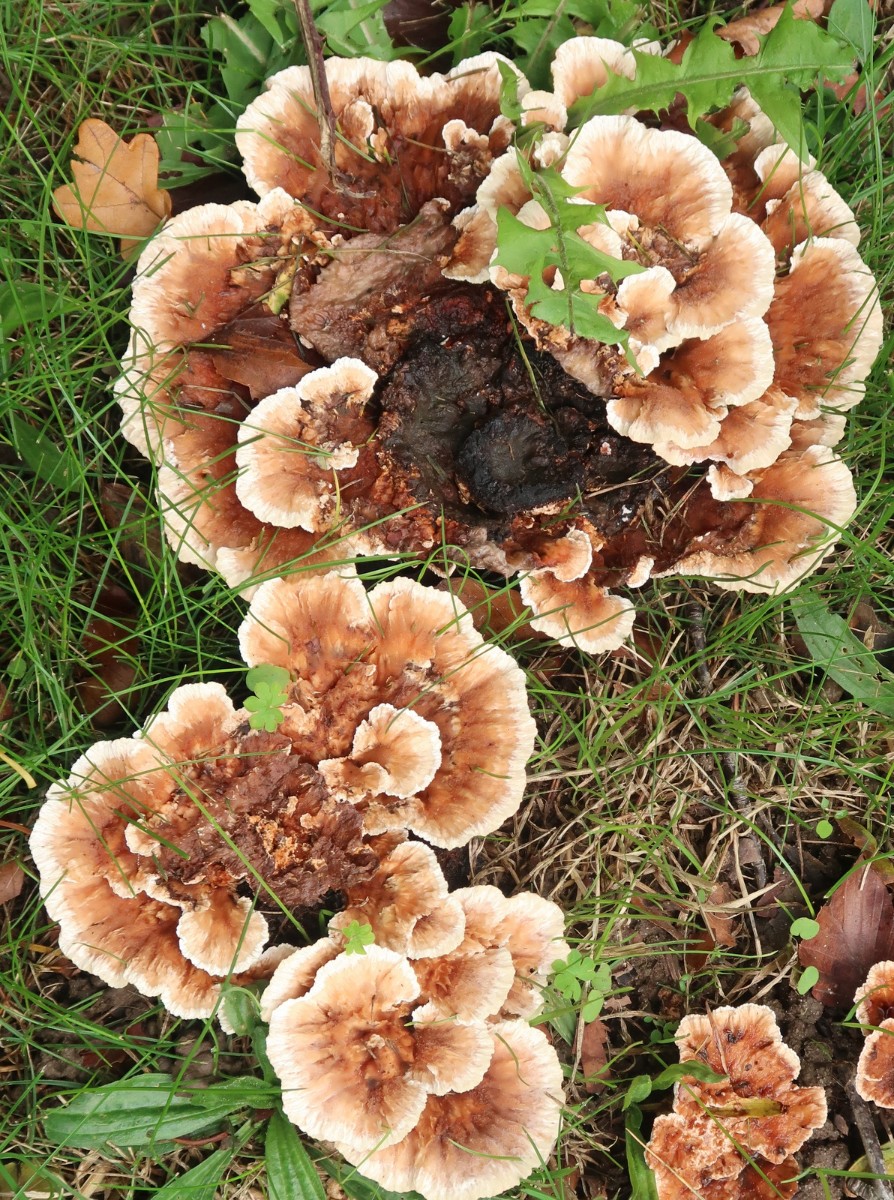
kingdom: Fungi
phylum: Basidiomycota
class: Agaricomycetes
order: Polyporales
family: Podoscyphaceae
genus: Abortiporus
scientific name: Abortiporus biennis
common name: rødmende pjalteporesvamp
